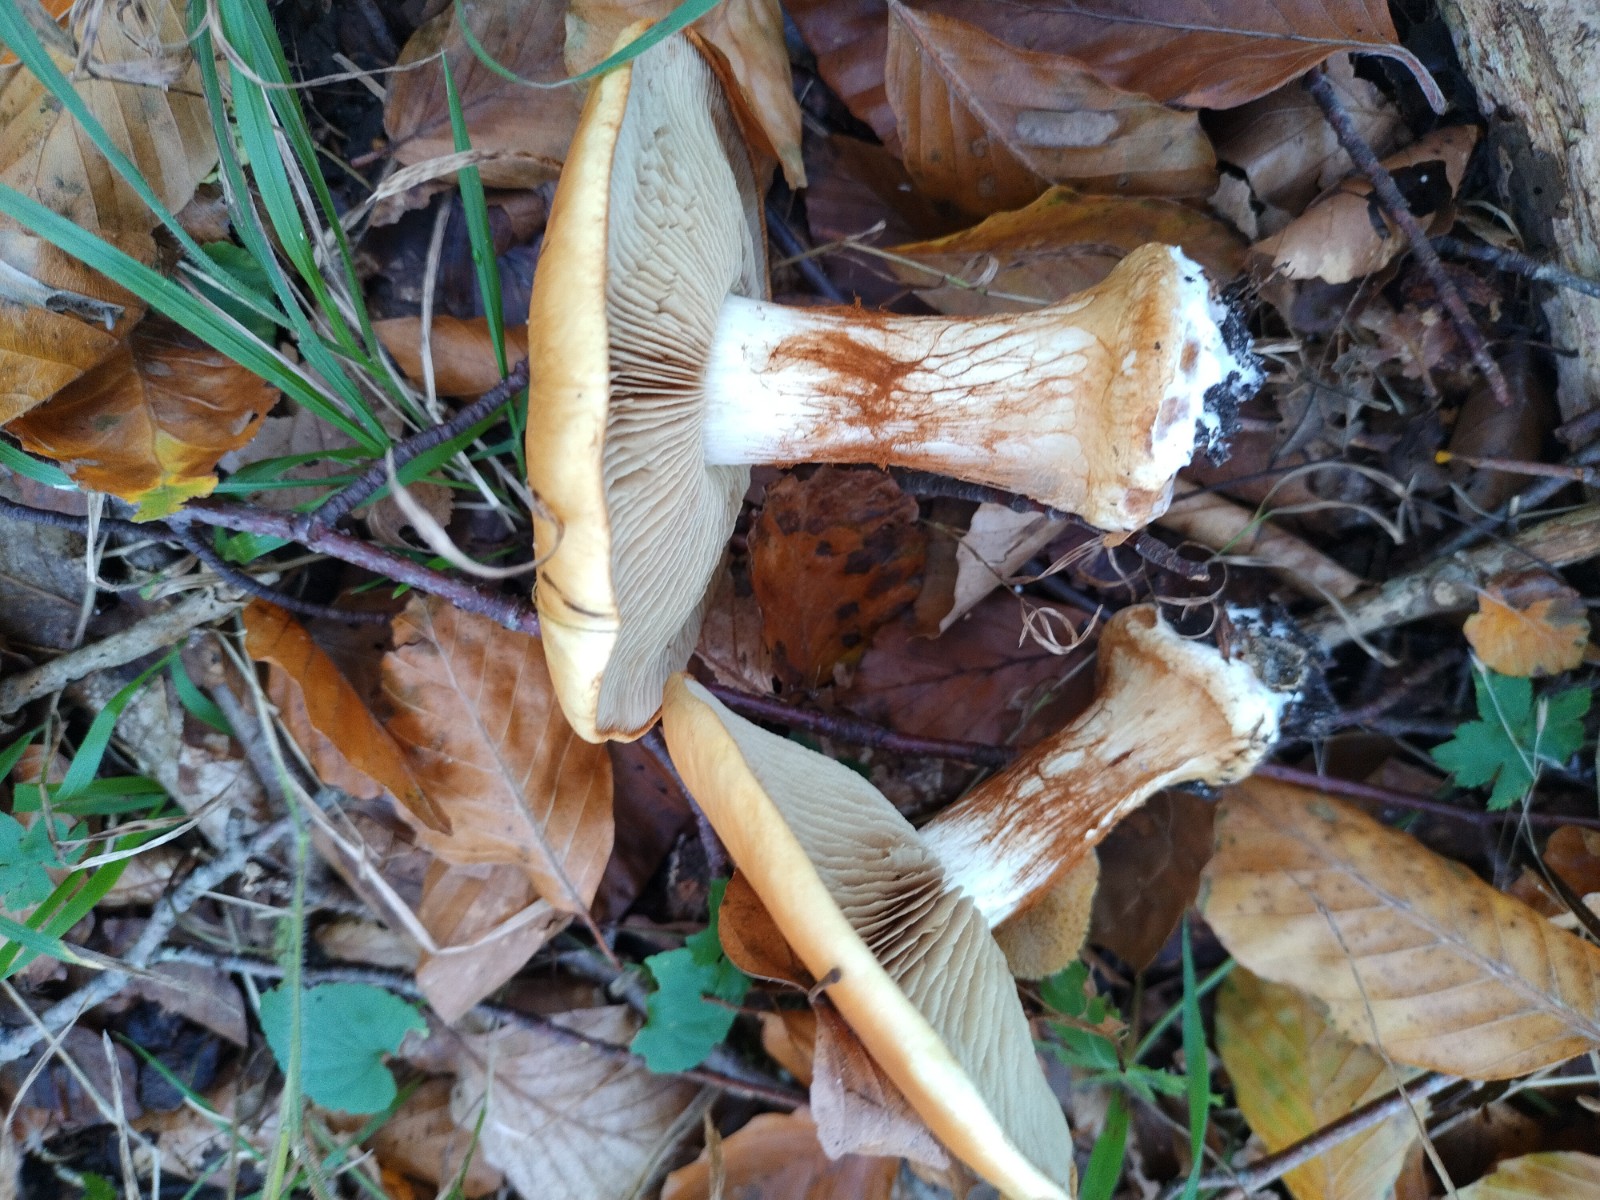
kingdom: Fungi
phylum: Basidiomycota
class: Agaricomycetes
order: Agaricales
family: Cortinariaceae
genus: Calonarius
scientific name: Calonarius humolens
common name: radise-slørhat
